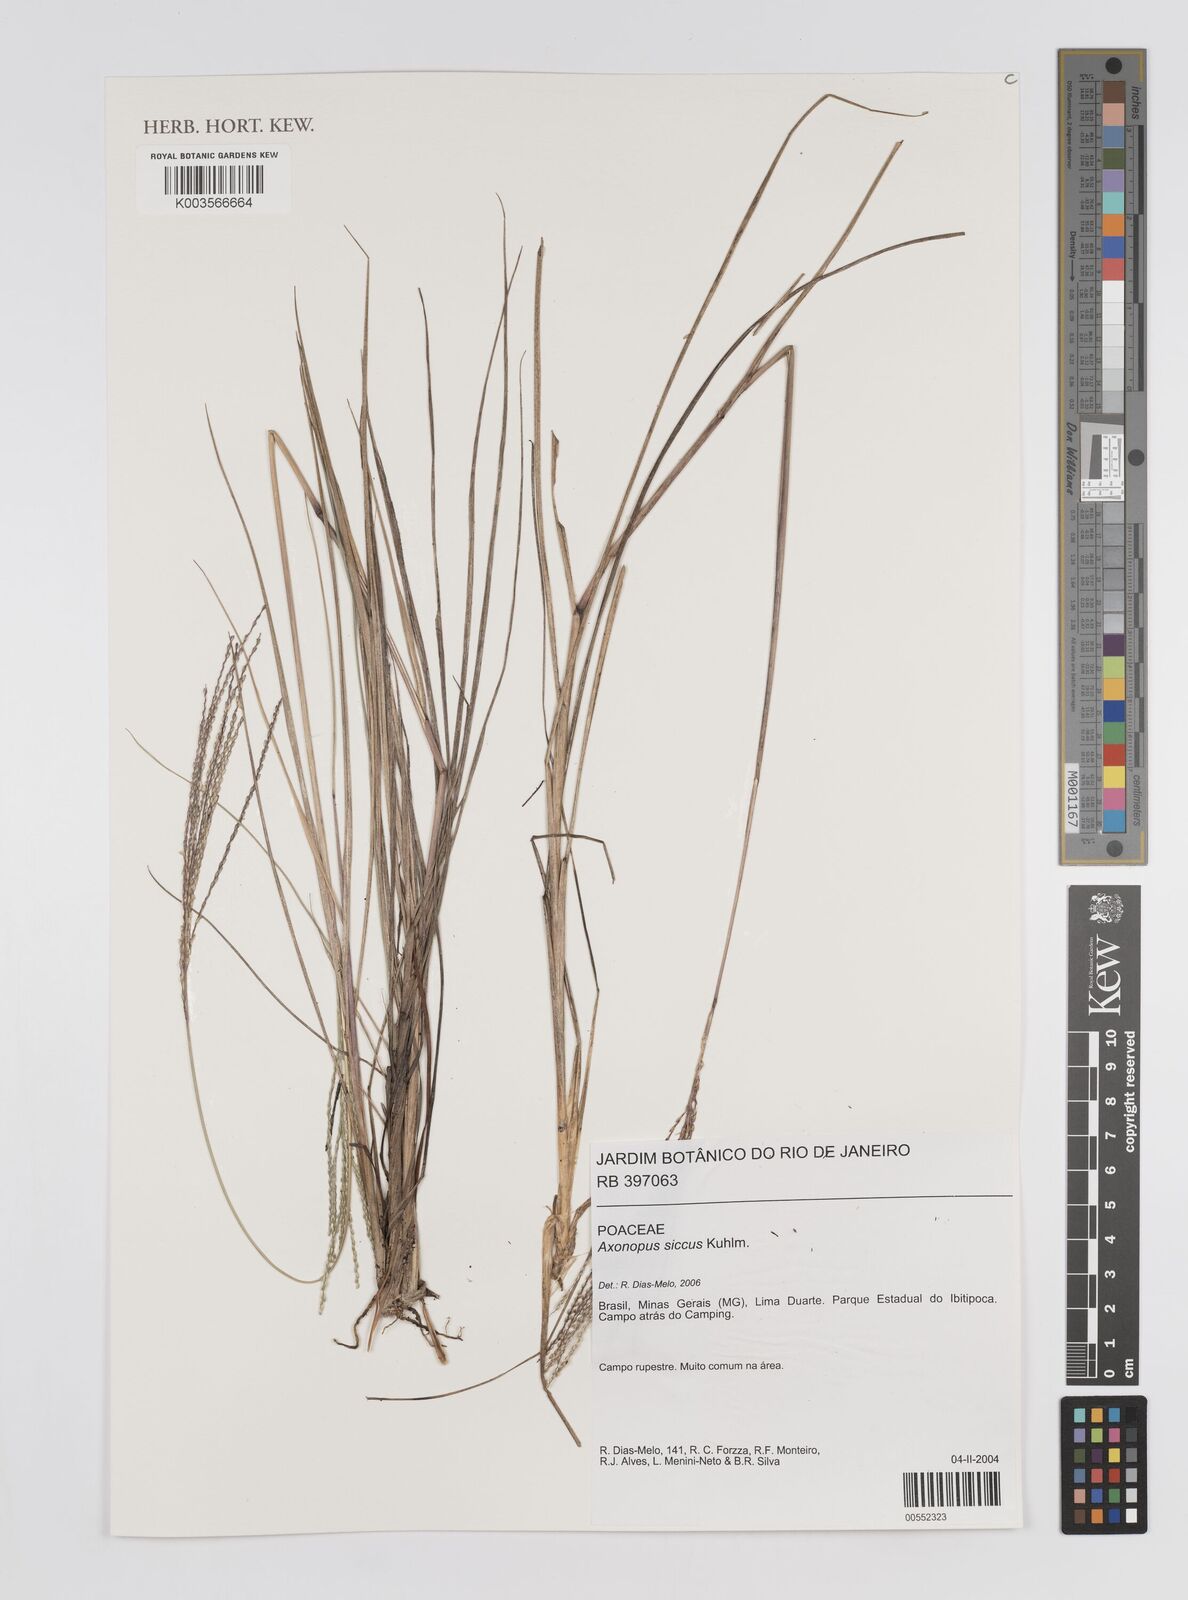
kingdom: Plantae
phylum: Tracheophyta
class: Liliopsida
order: Poales
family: Poaceae
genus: Axonopus
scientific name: Axonopus siccus
